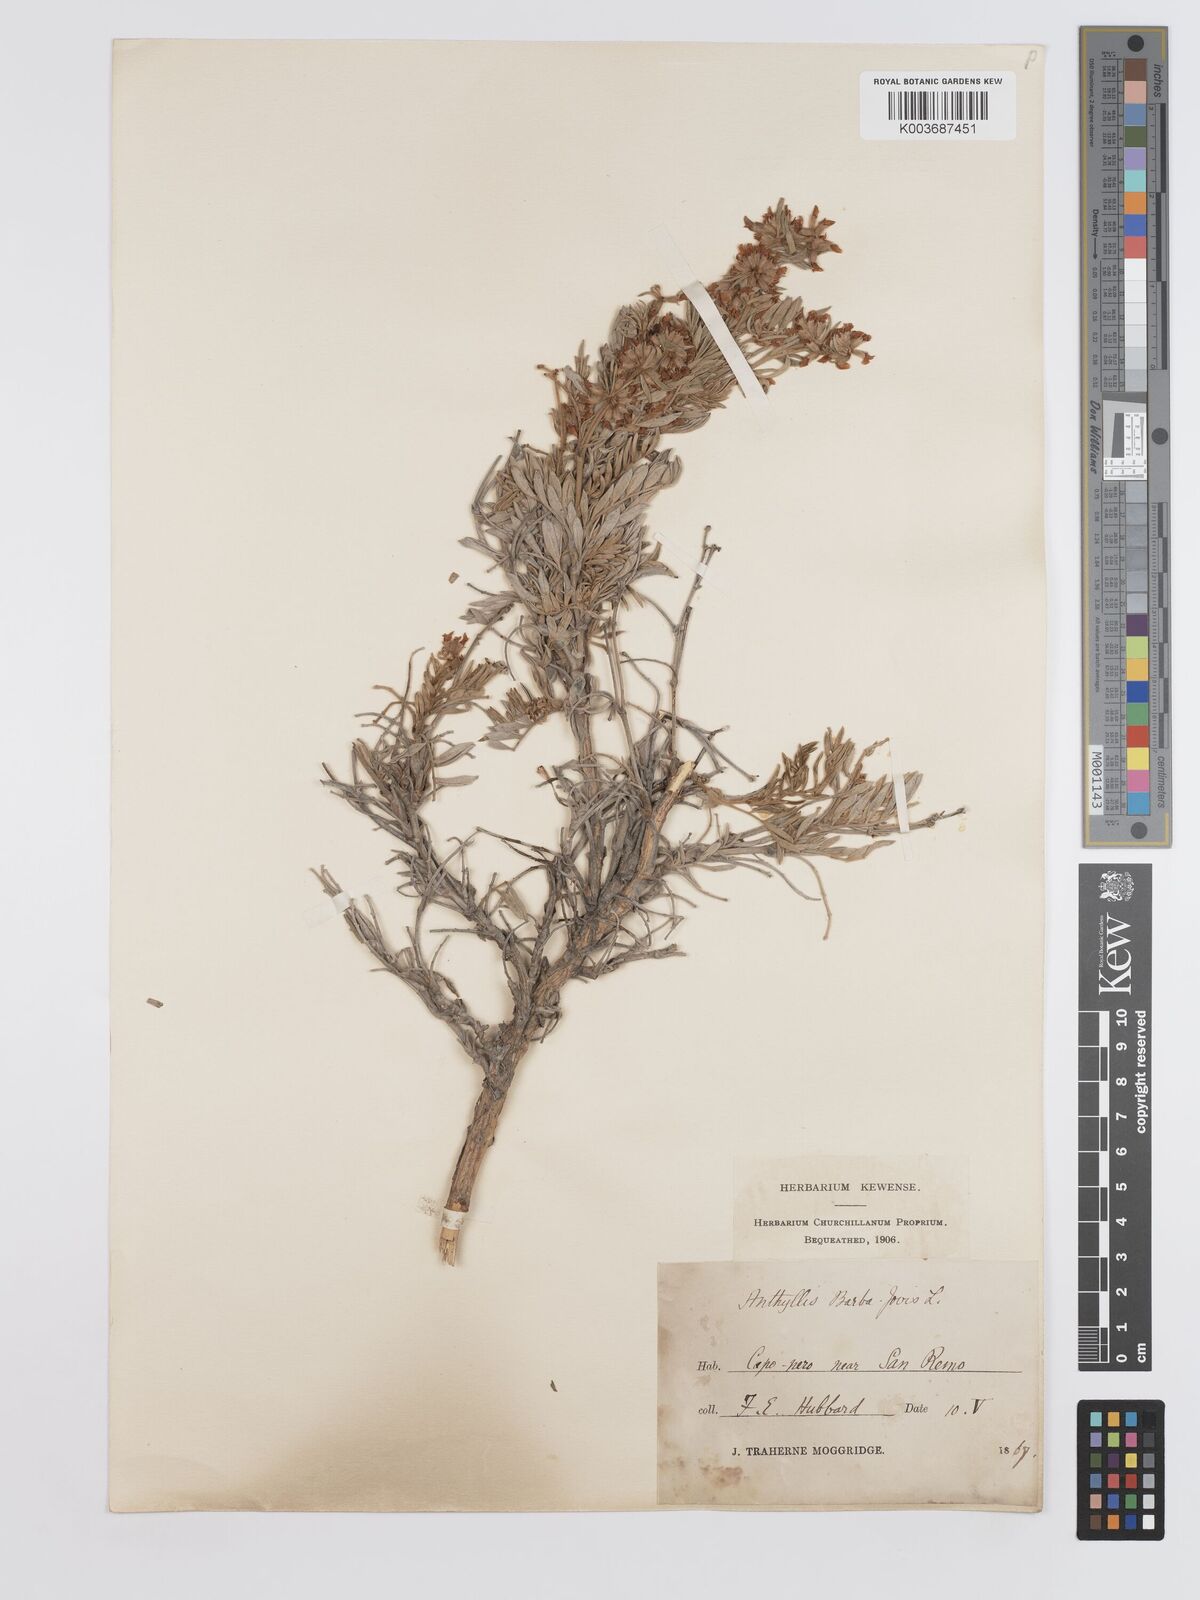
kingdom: Plantae
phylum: Tracheophyta
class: Magnoliopsida
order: Fabales
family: Fabaceae
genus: Anthyllis
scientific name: Anthyllis barba-jovis
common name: Jupiter's-beard
